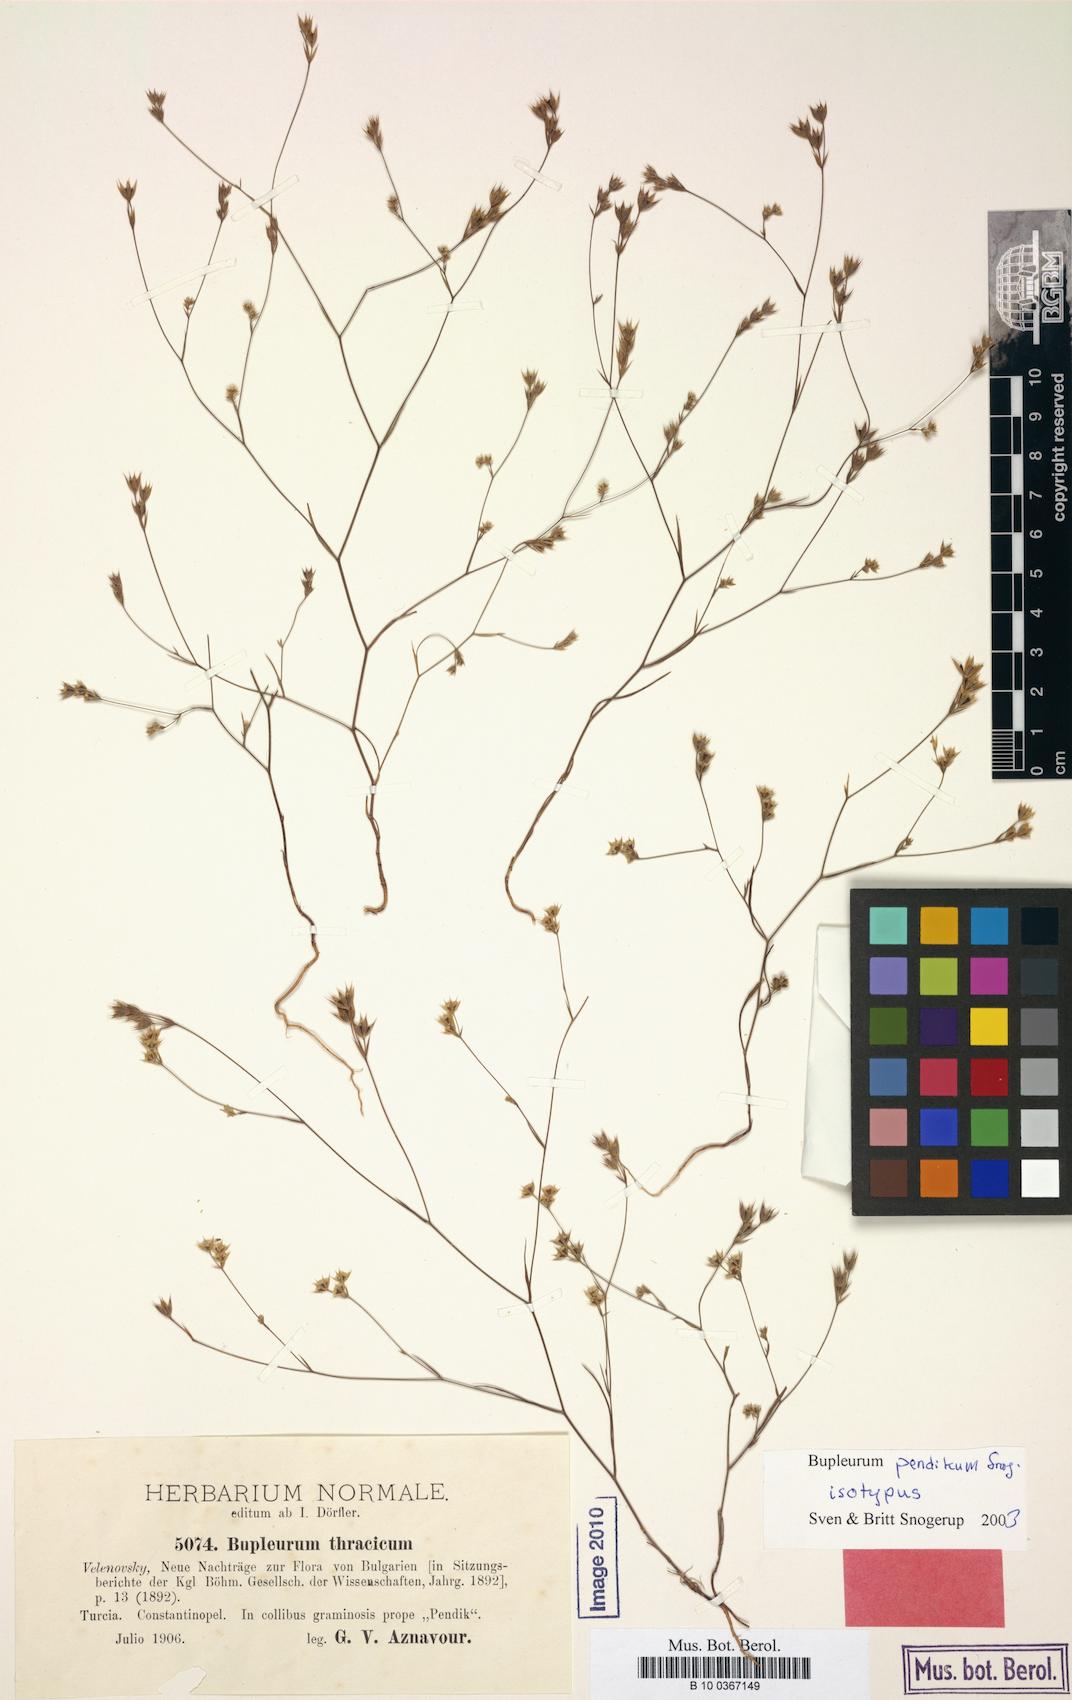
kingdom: Plantae
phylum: Tracheophyta
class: Magnoliopsida
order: Apiales
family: Apiaceae
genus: Bupleurum
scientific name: Bupleurum pendikum
